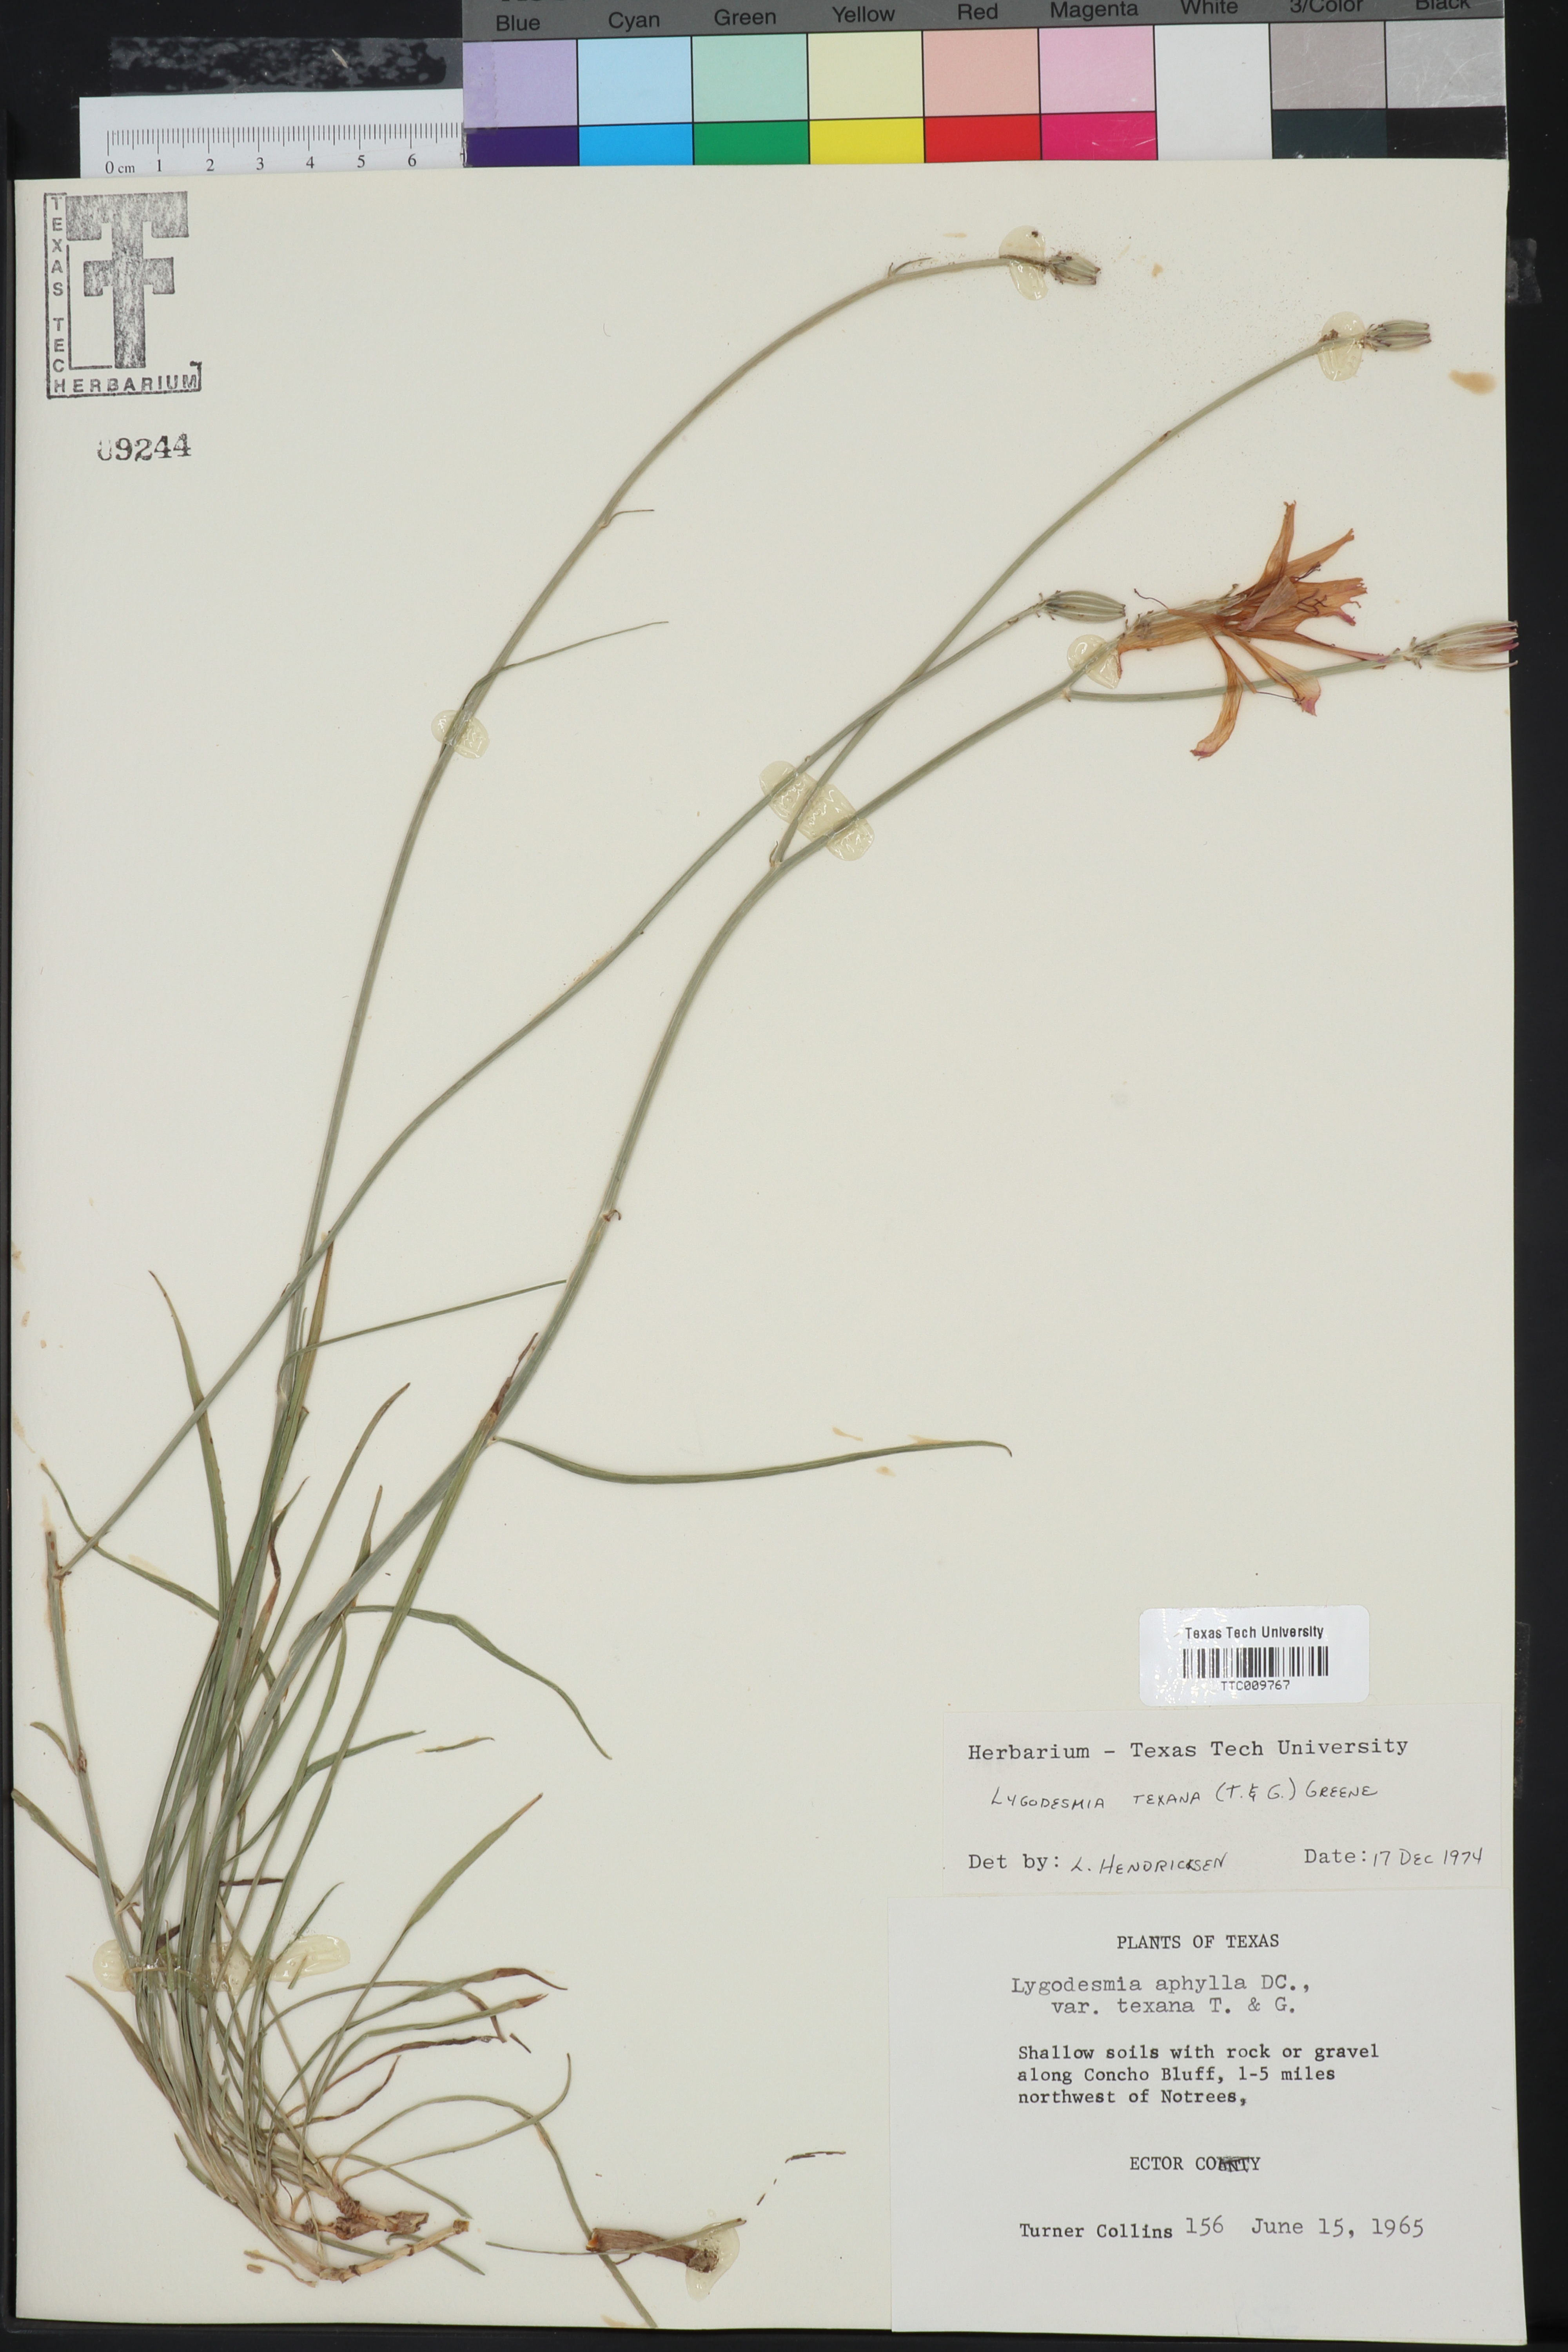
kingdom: Plantae
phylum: Tracheophyta
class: Magnoliopsida
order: Asterales
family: Asteraceae
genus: Lygodesmia
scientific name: Lygodesmia texana
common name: Texas skeleton-plant
